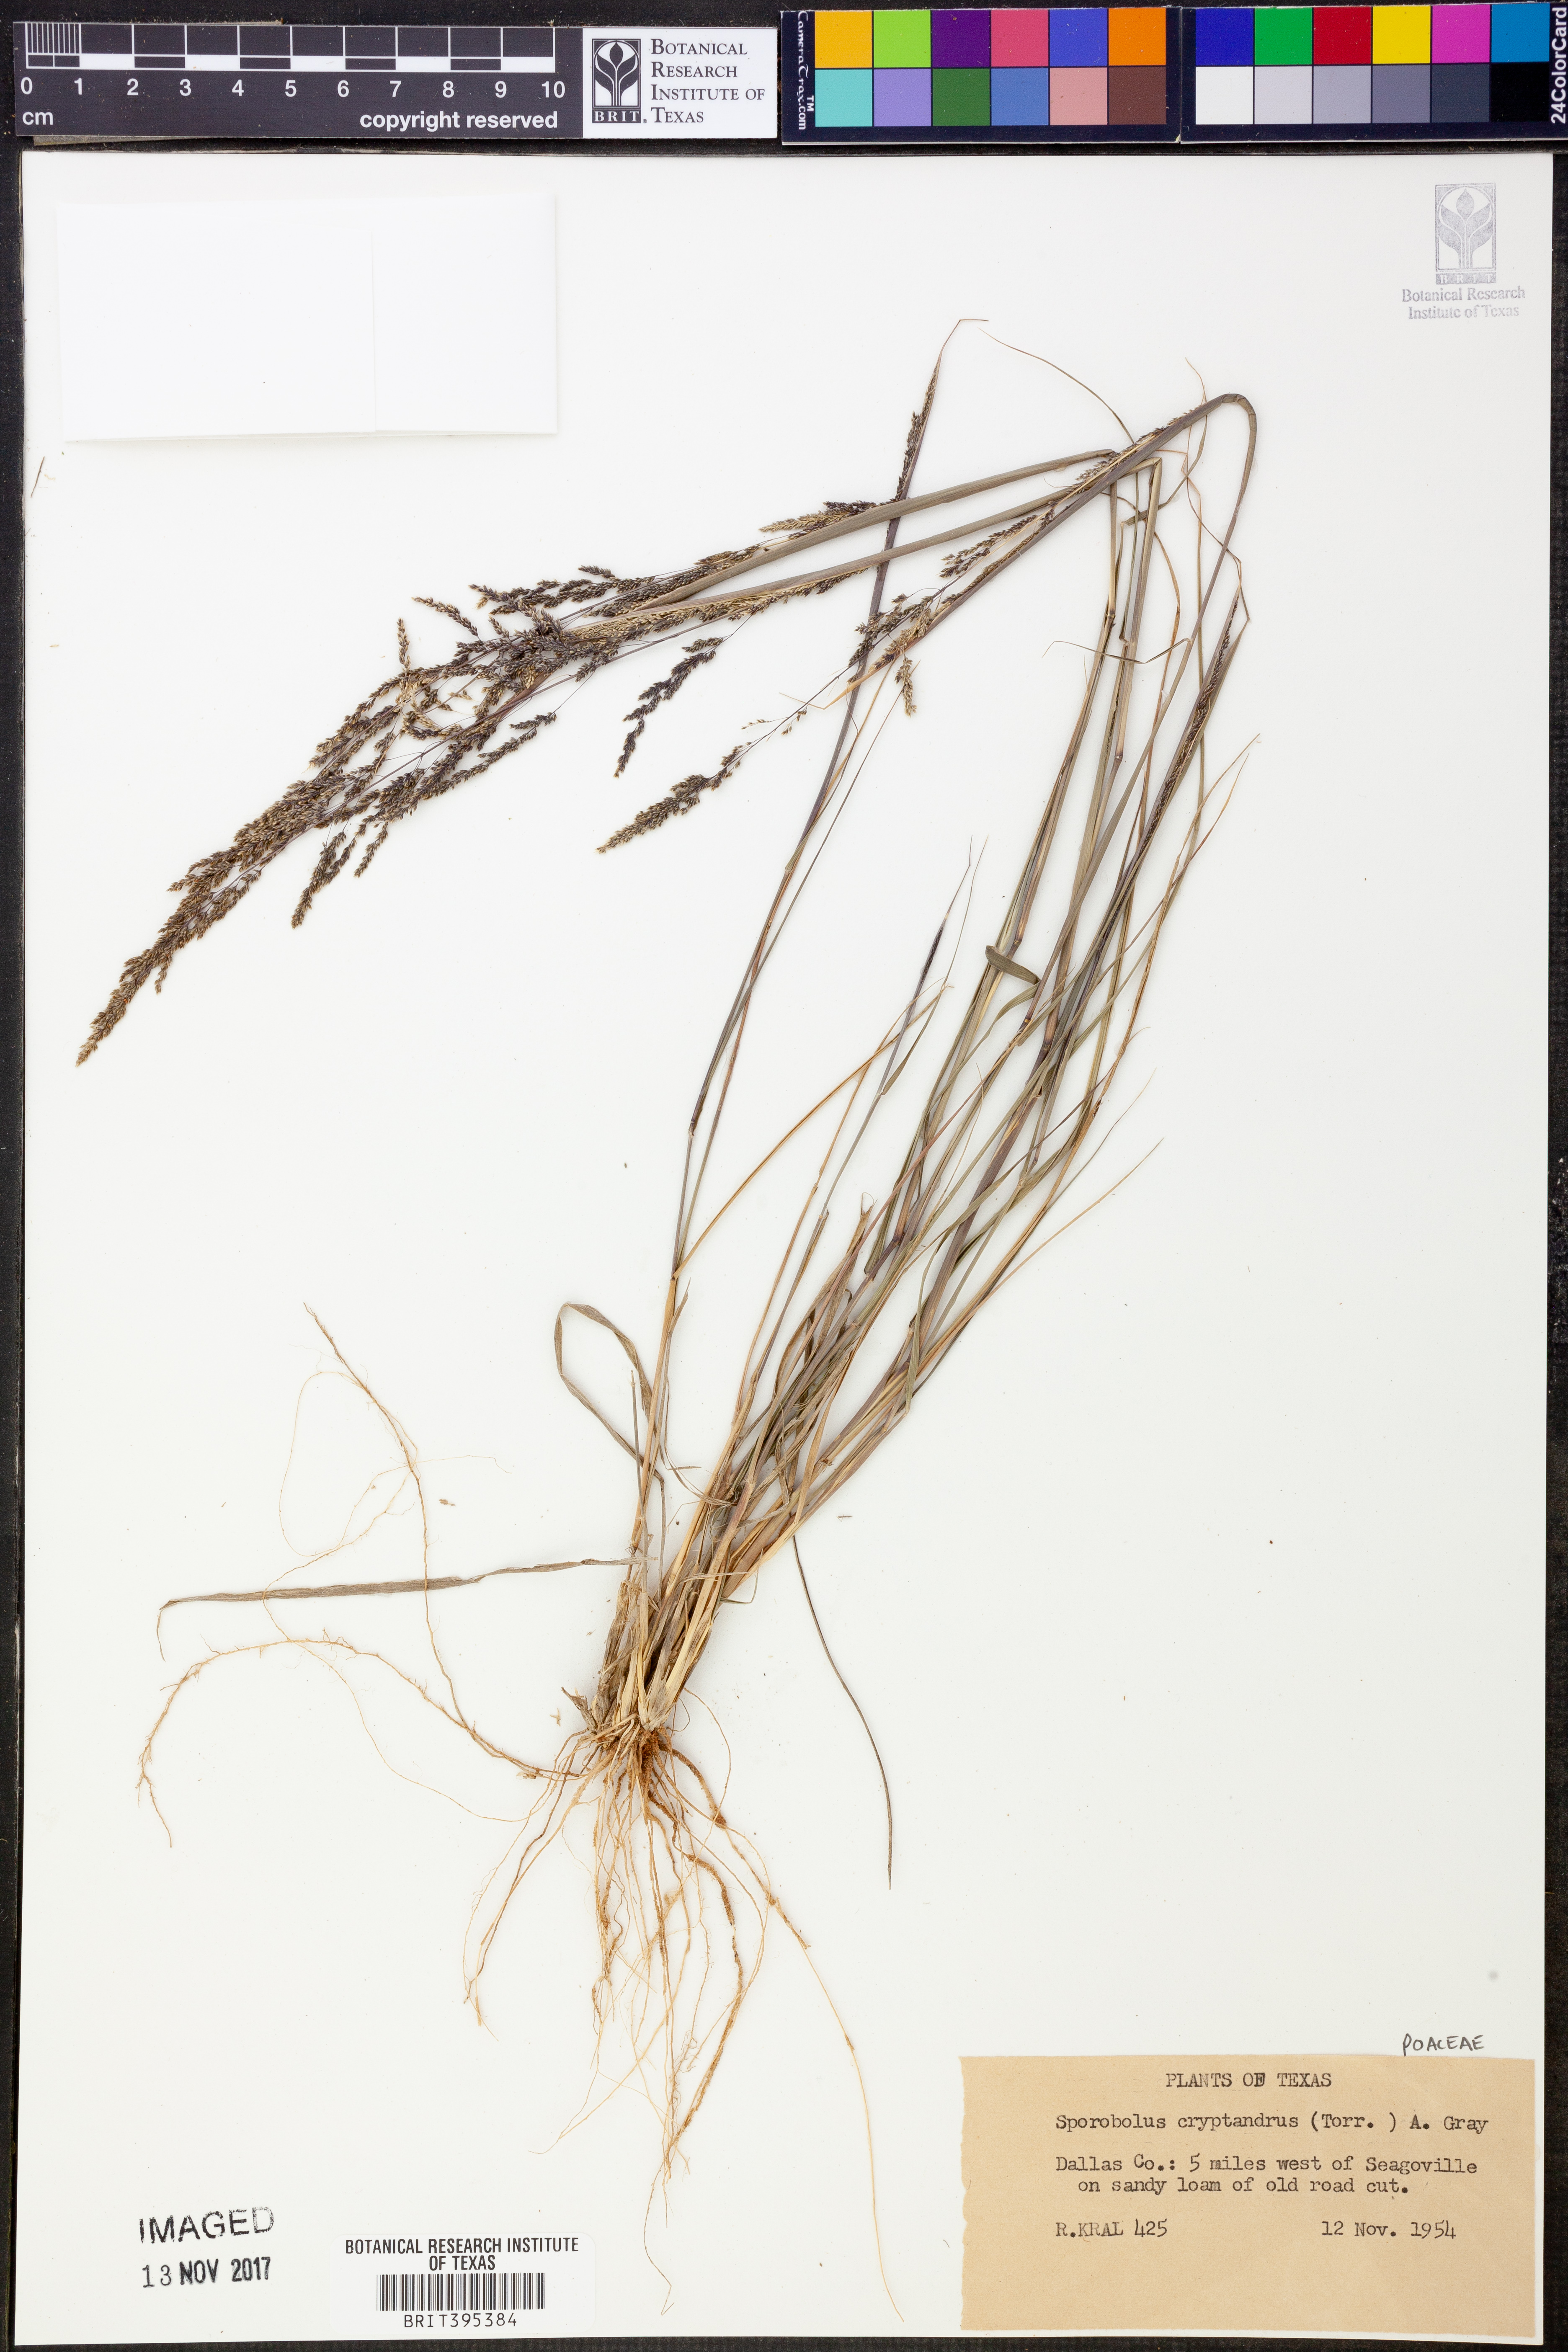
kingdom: Plantae
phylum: Tracheophyta
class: Liliopsida
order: Poales
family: Poaceae
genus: Sporobolus
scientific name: Sporobolus cryptandrus
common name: Sand dropseed
